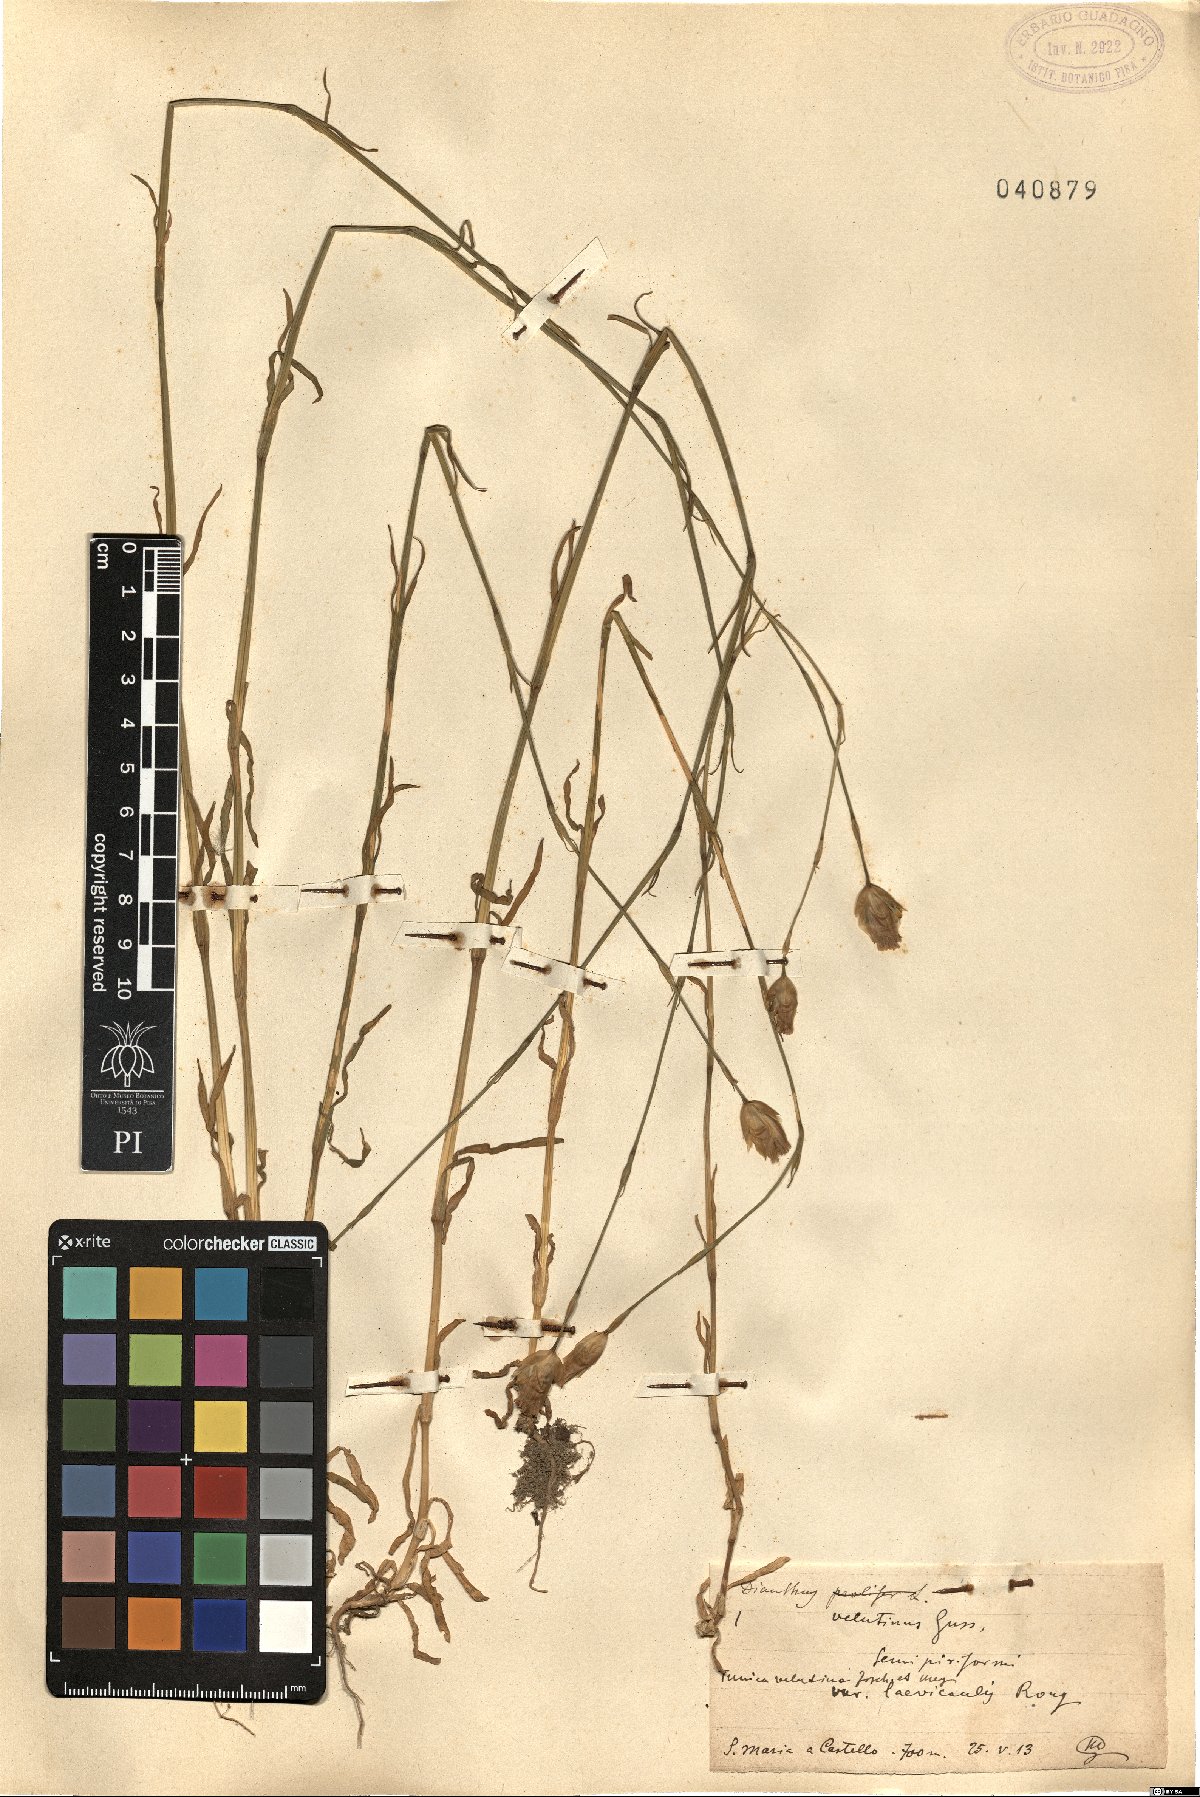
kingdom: Plantae
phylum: Tracheophyta
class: Magnoliopsida
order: Caryophyllales
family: Caryophyllaceae
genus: Petrorhagia
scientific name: Petrorhagia dubia
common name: Hairypink
